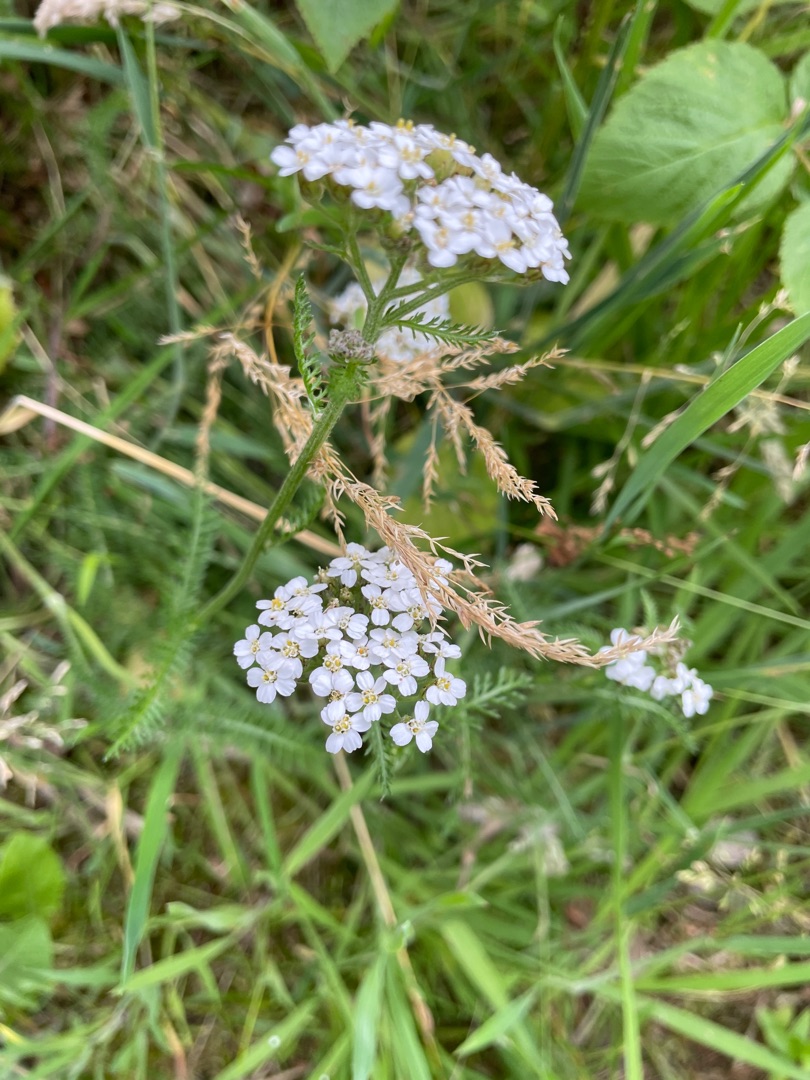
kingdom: Plantae
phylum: Tracheophyta
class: Magnoliopsida
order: Asterales
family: Asteraceae
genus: Achillea
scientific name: Achillea millefolium
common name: Almindelig røllike
